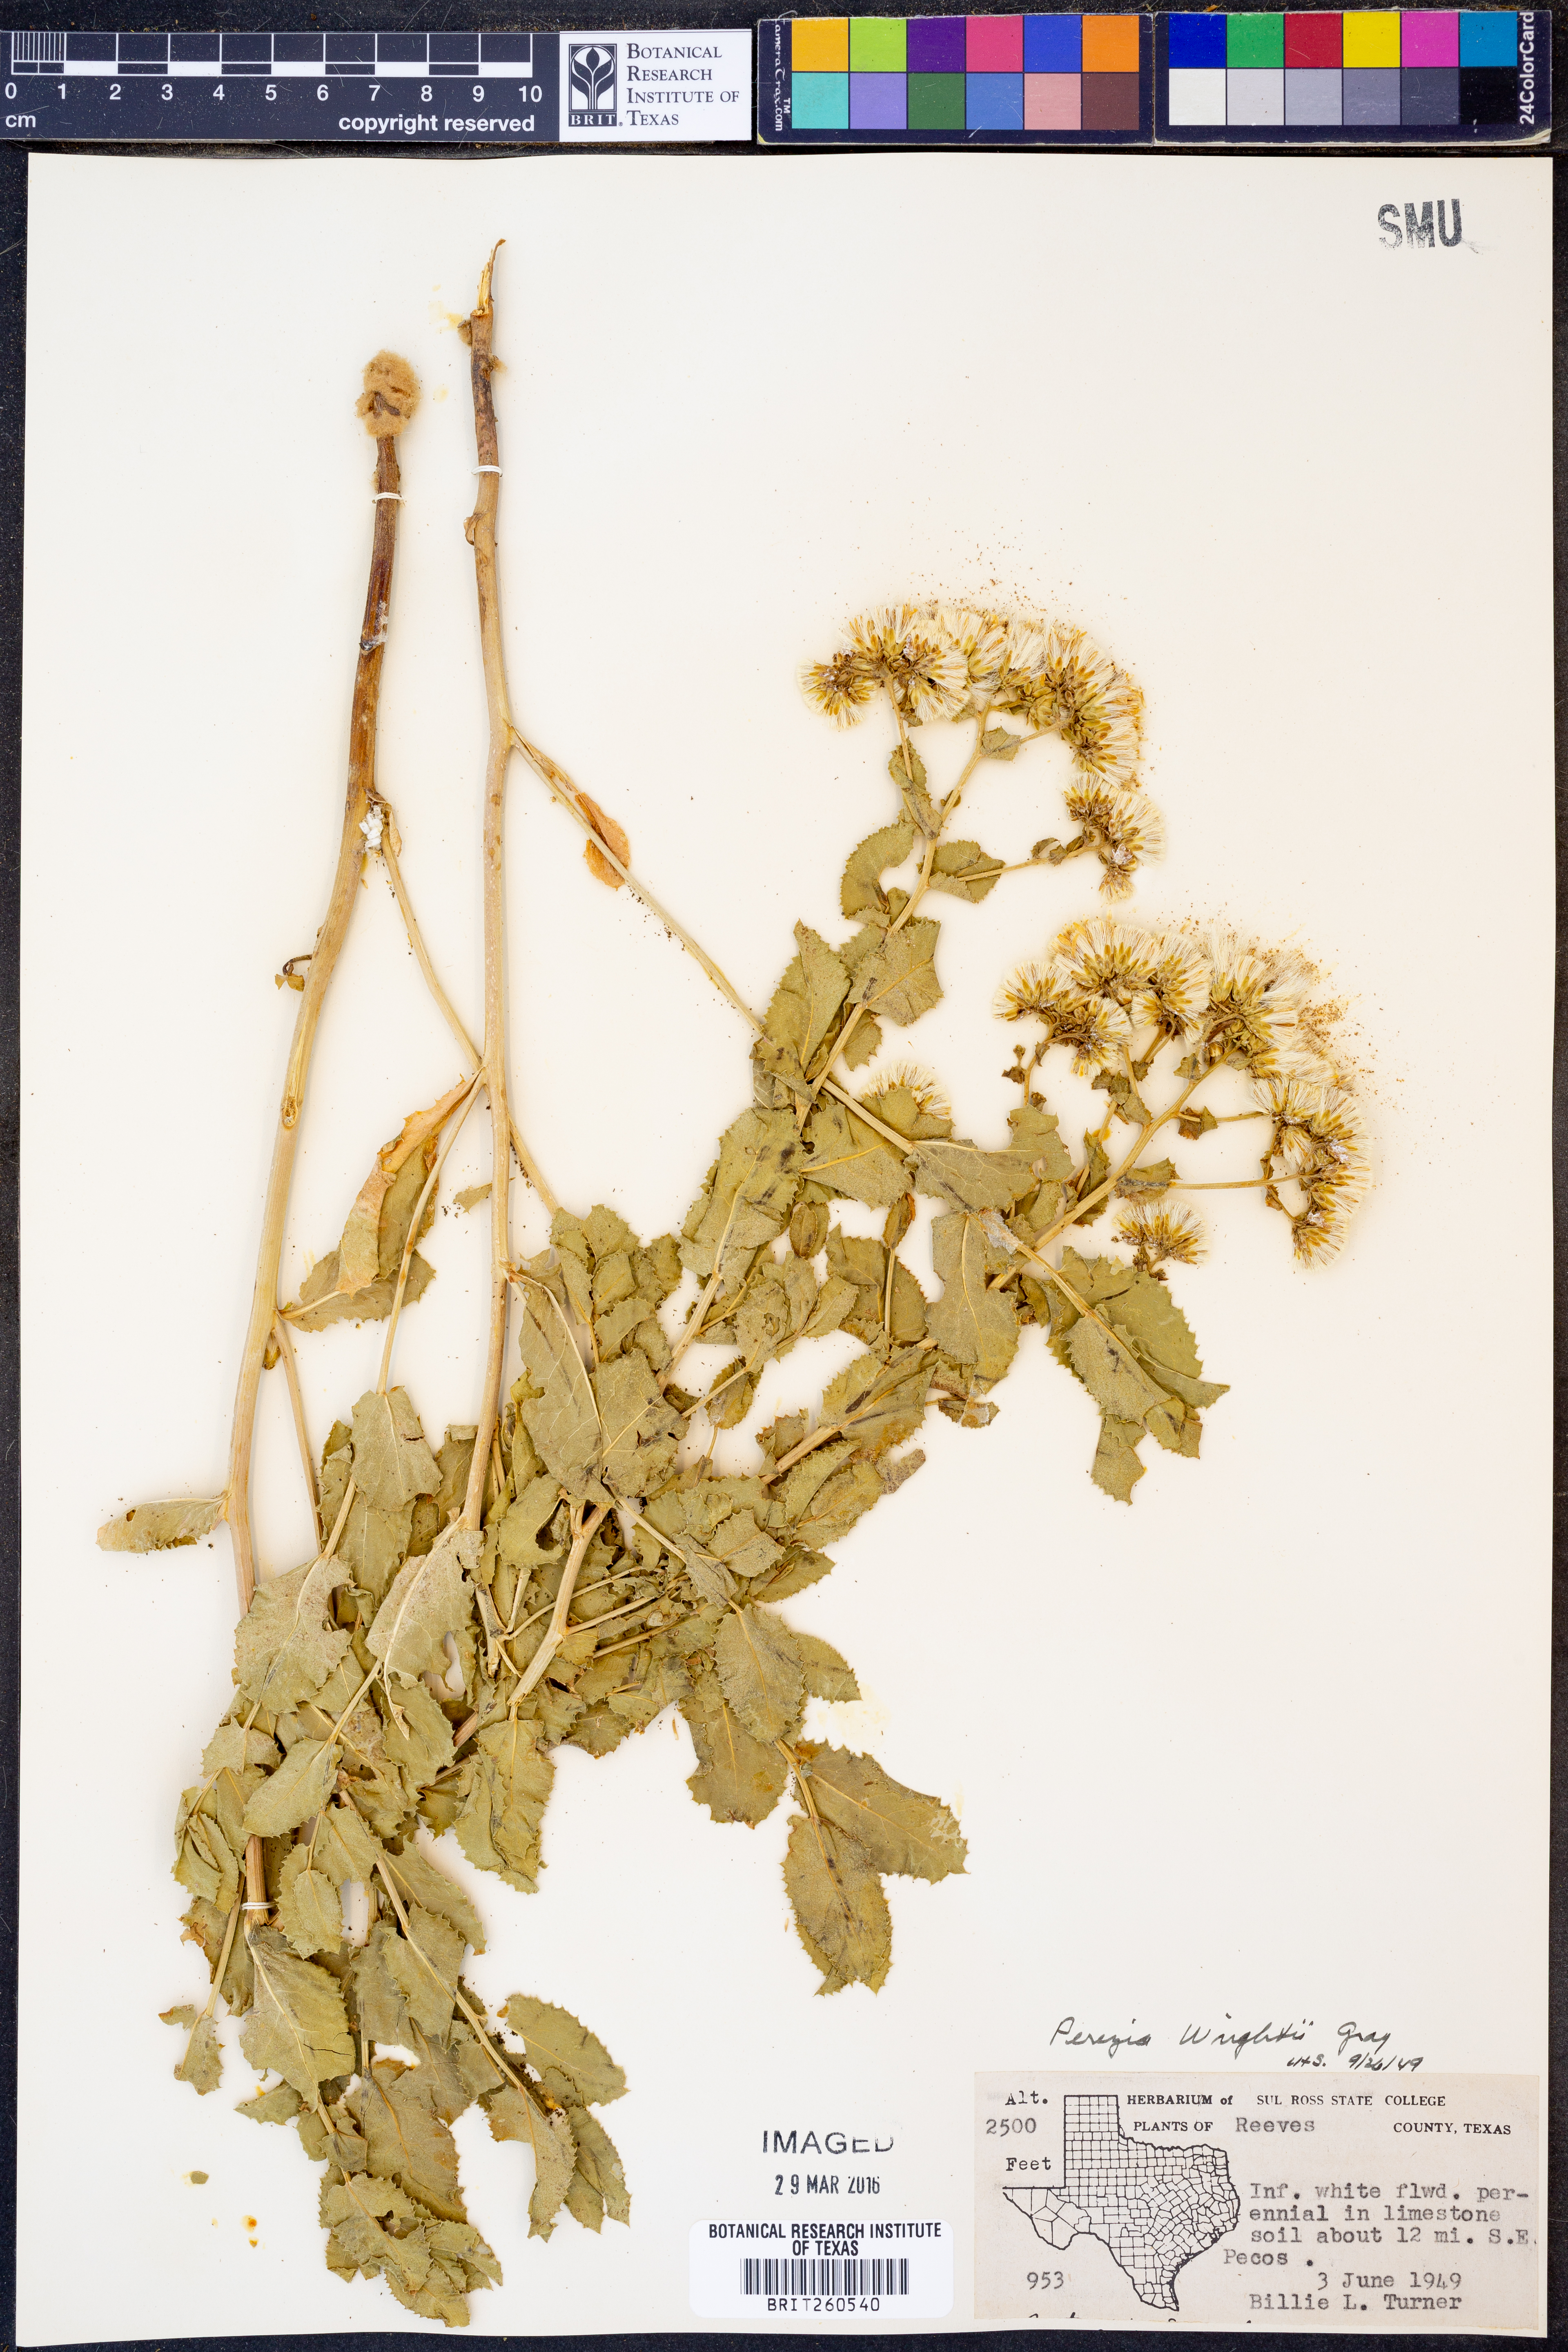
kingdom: Plantae
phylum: Tracheophyta
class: Magnoliopsida
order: Asterales
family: Asteraceae
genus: Acourtia
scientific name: Acourtia wrightii
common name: Brownfoot
